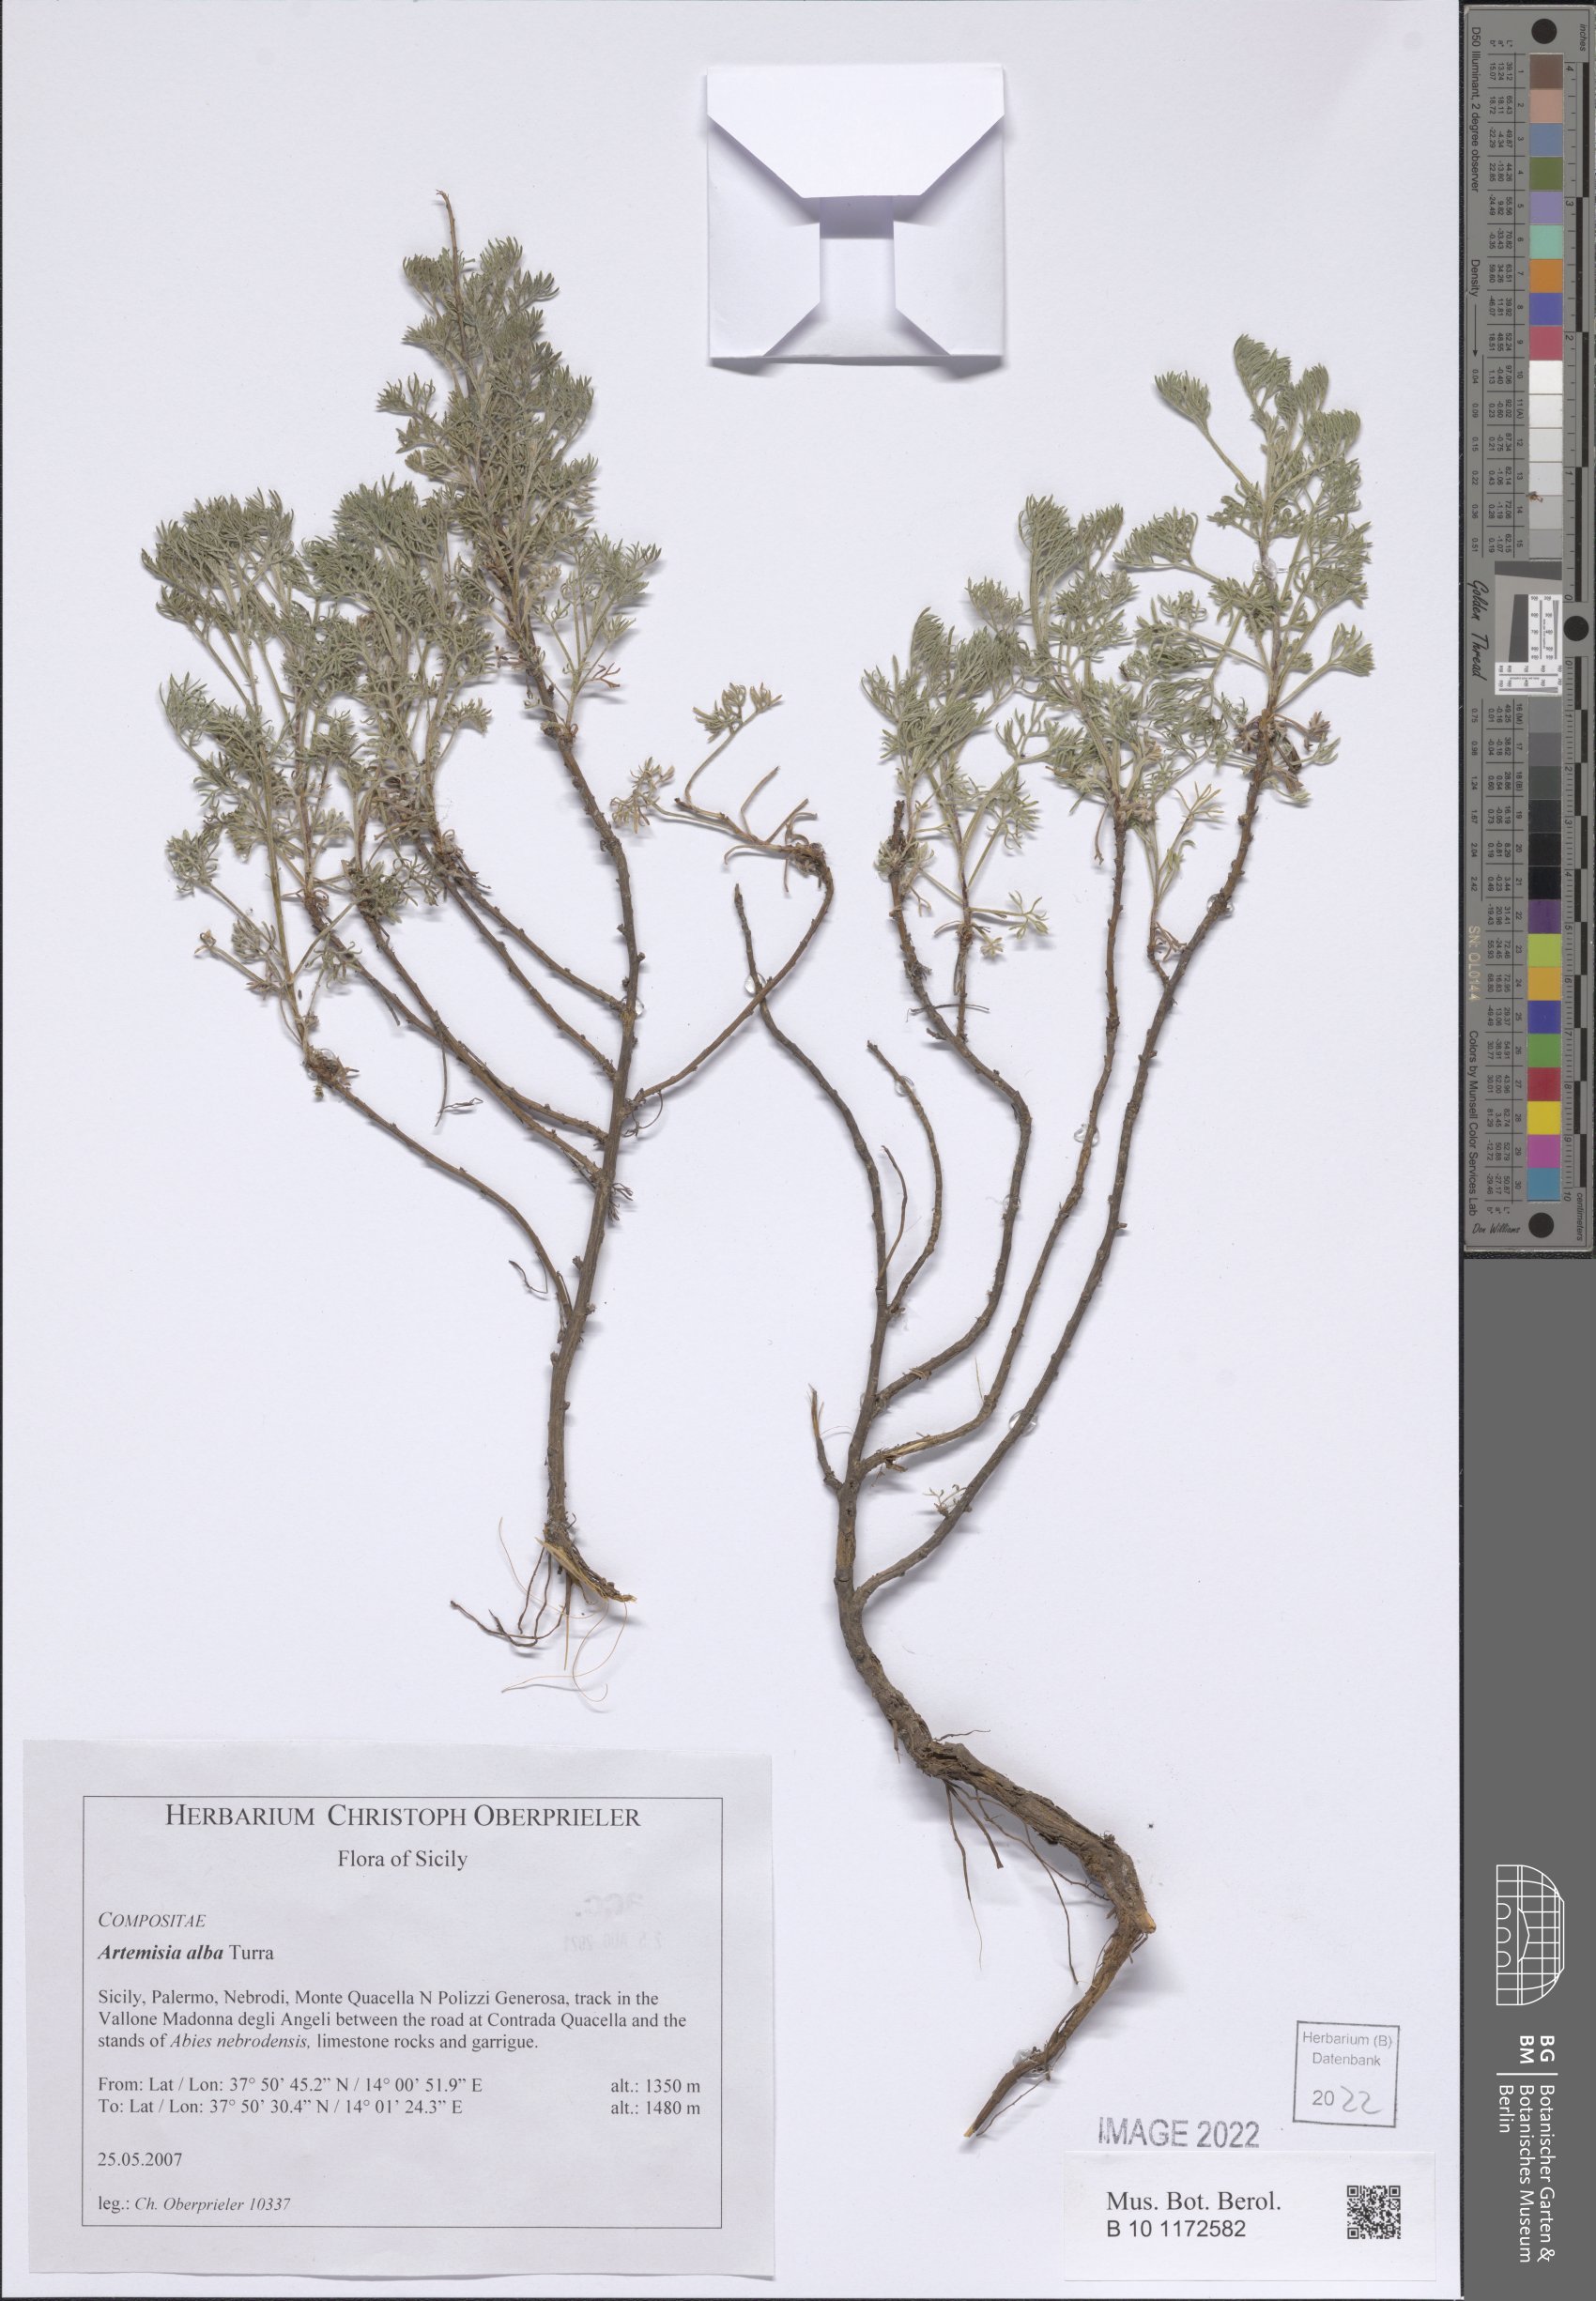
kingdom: Plantae
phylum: Tracheophyta
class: Magnoliopsida
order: Asterales
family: Asteraceae
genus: Artemisia
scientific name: Artemisia alba
